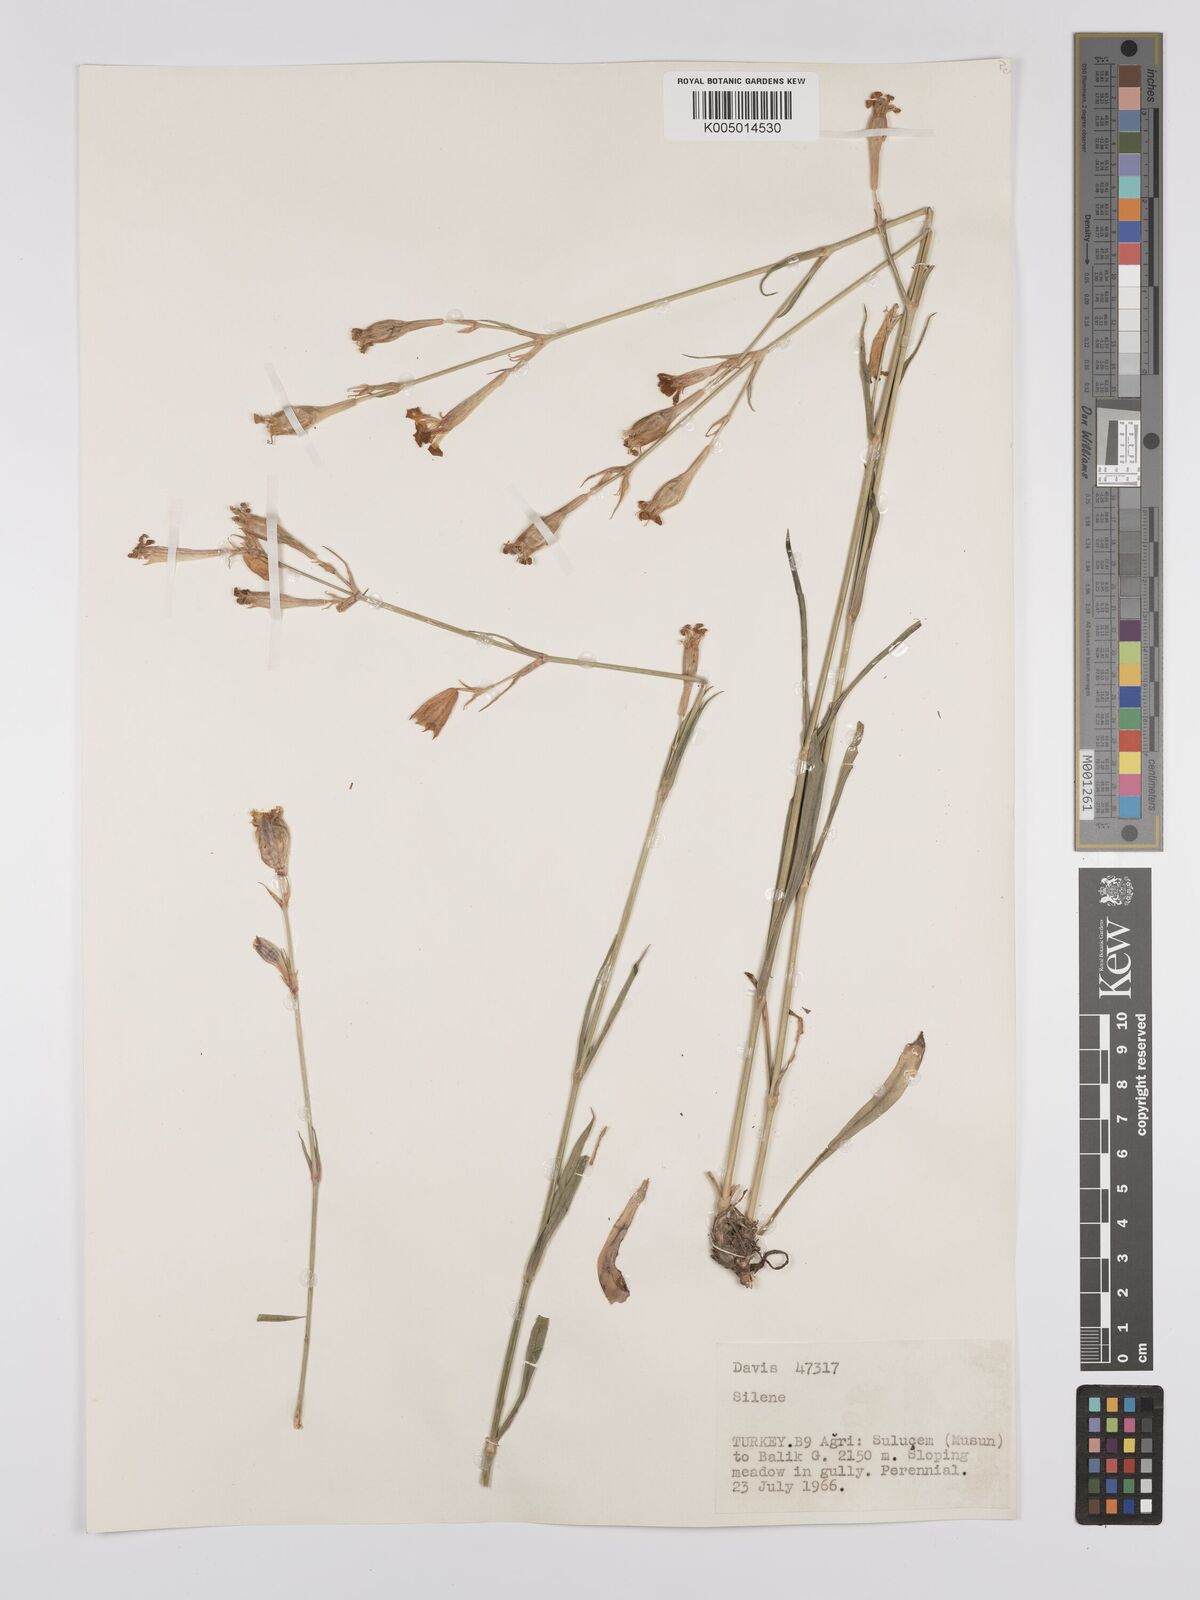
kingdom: Plantae
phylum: Tracheophyta
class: Magnoliopsida
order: Caryophyllales
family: Caryophyllaceae
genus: Silene
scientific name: Silene
